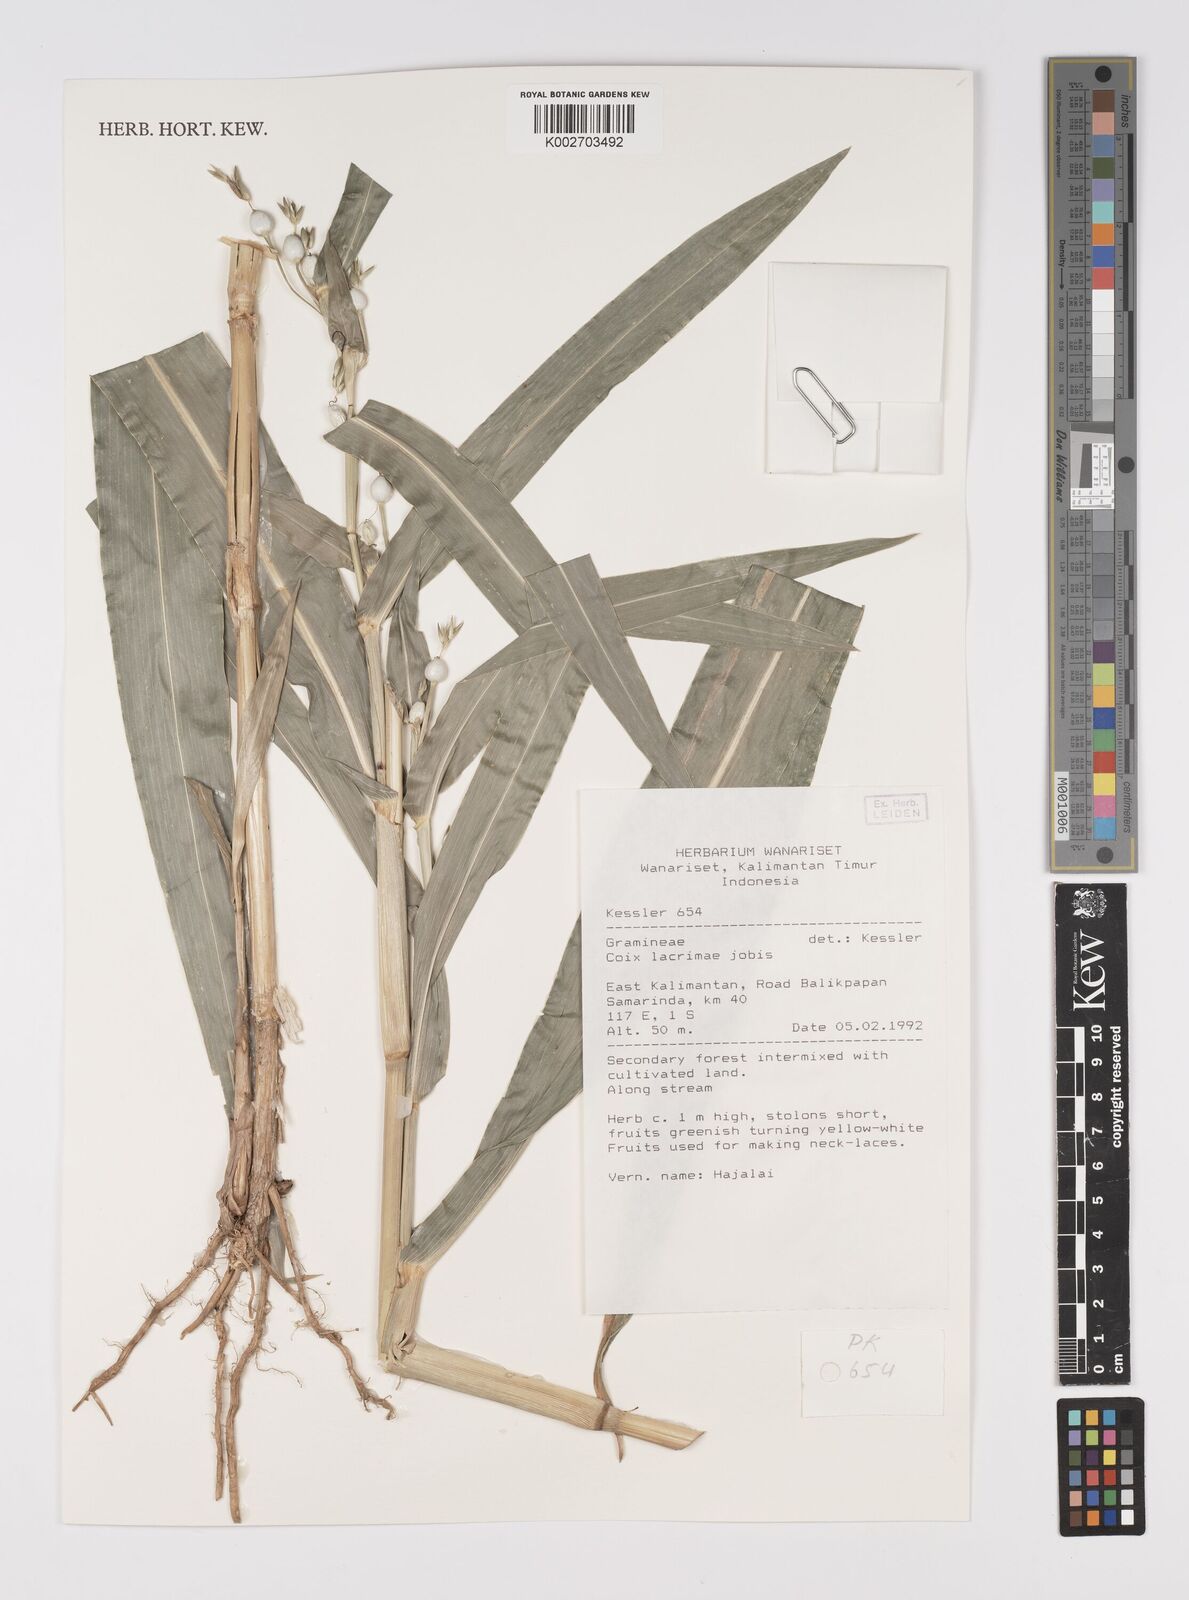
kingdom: Plantae
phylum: Tracheophyta
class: Liliopsida
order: Poales
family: Poaceae
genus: Coix
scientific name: Coix lacryma-jobi
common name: Job's tears
